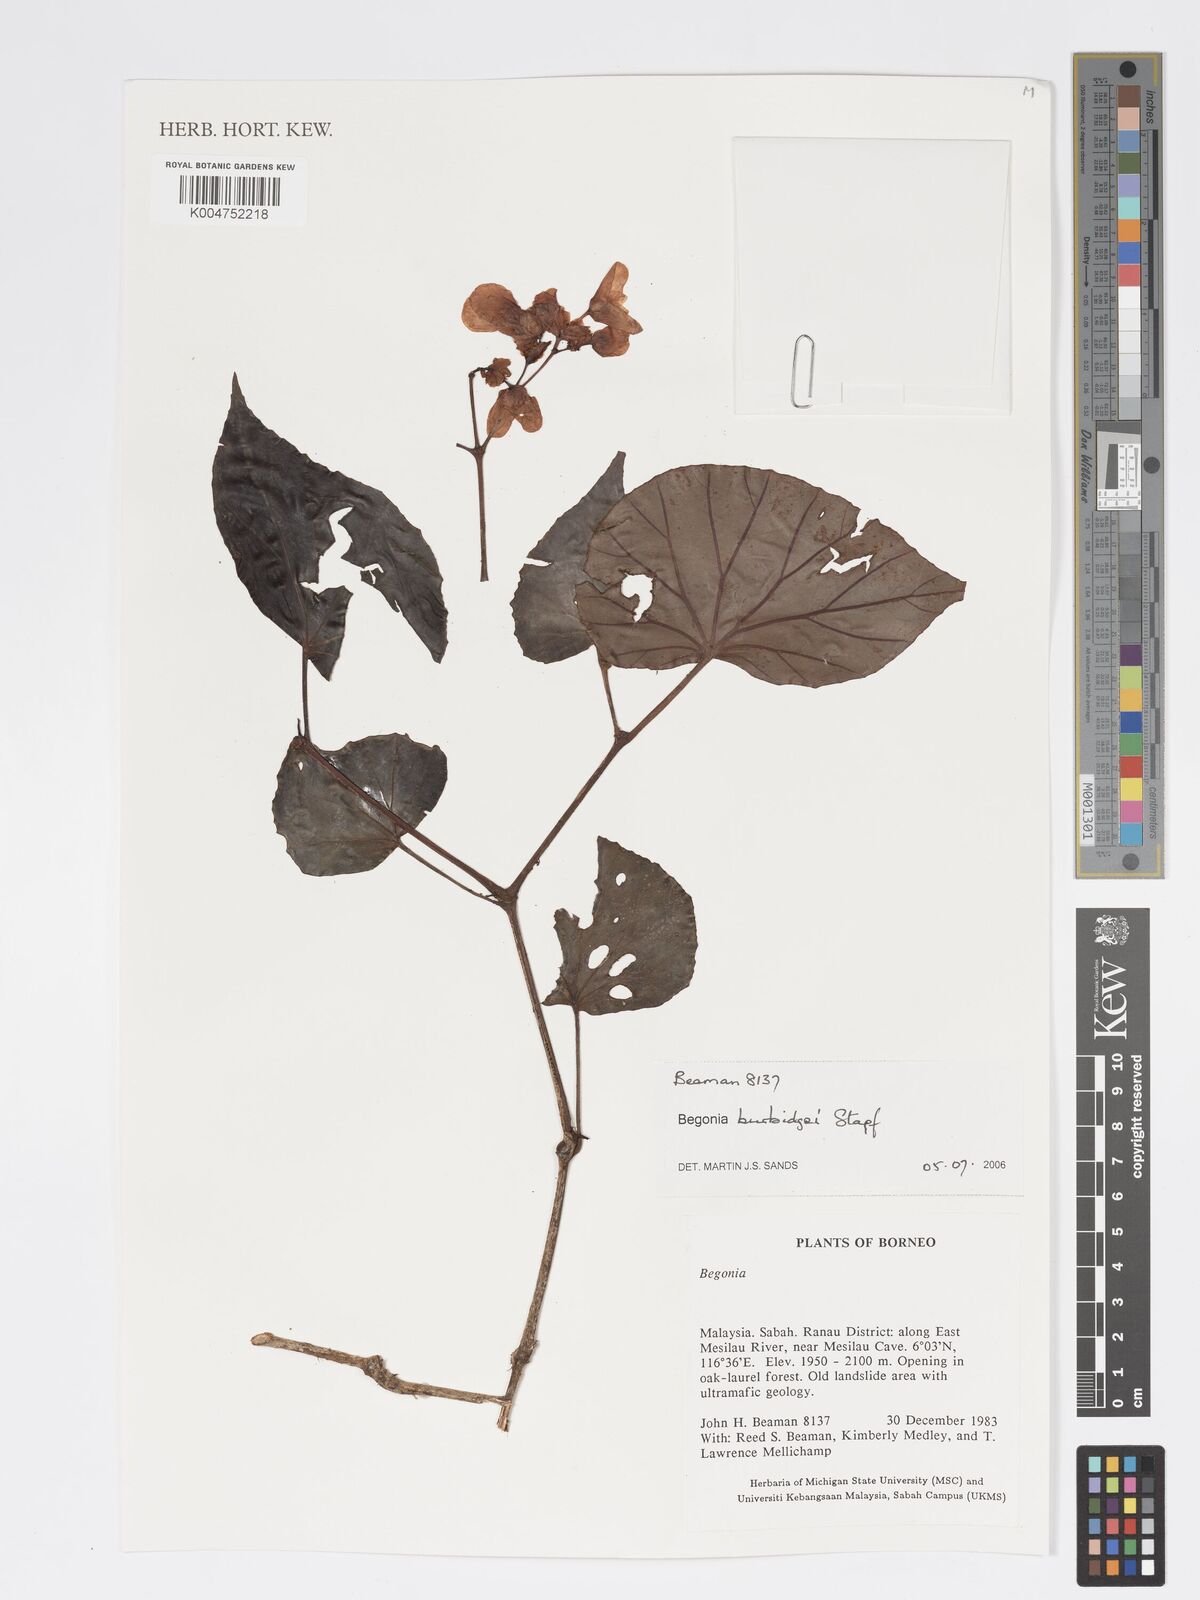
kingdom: Plantae
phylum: Tracheophyta
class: Magnoliopsida
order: Cucurbitales
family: Begoniaceae
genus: Begonia
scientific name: Begonia burbidgei
